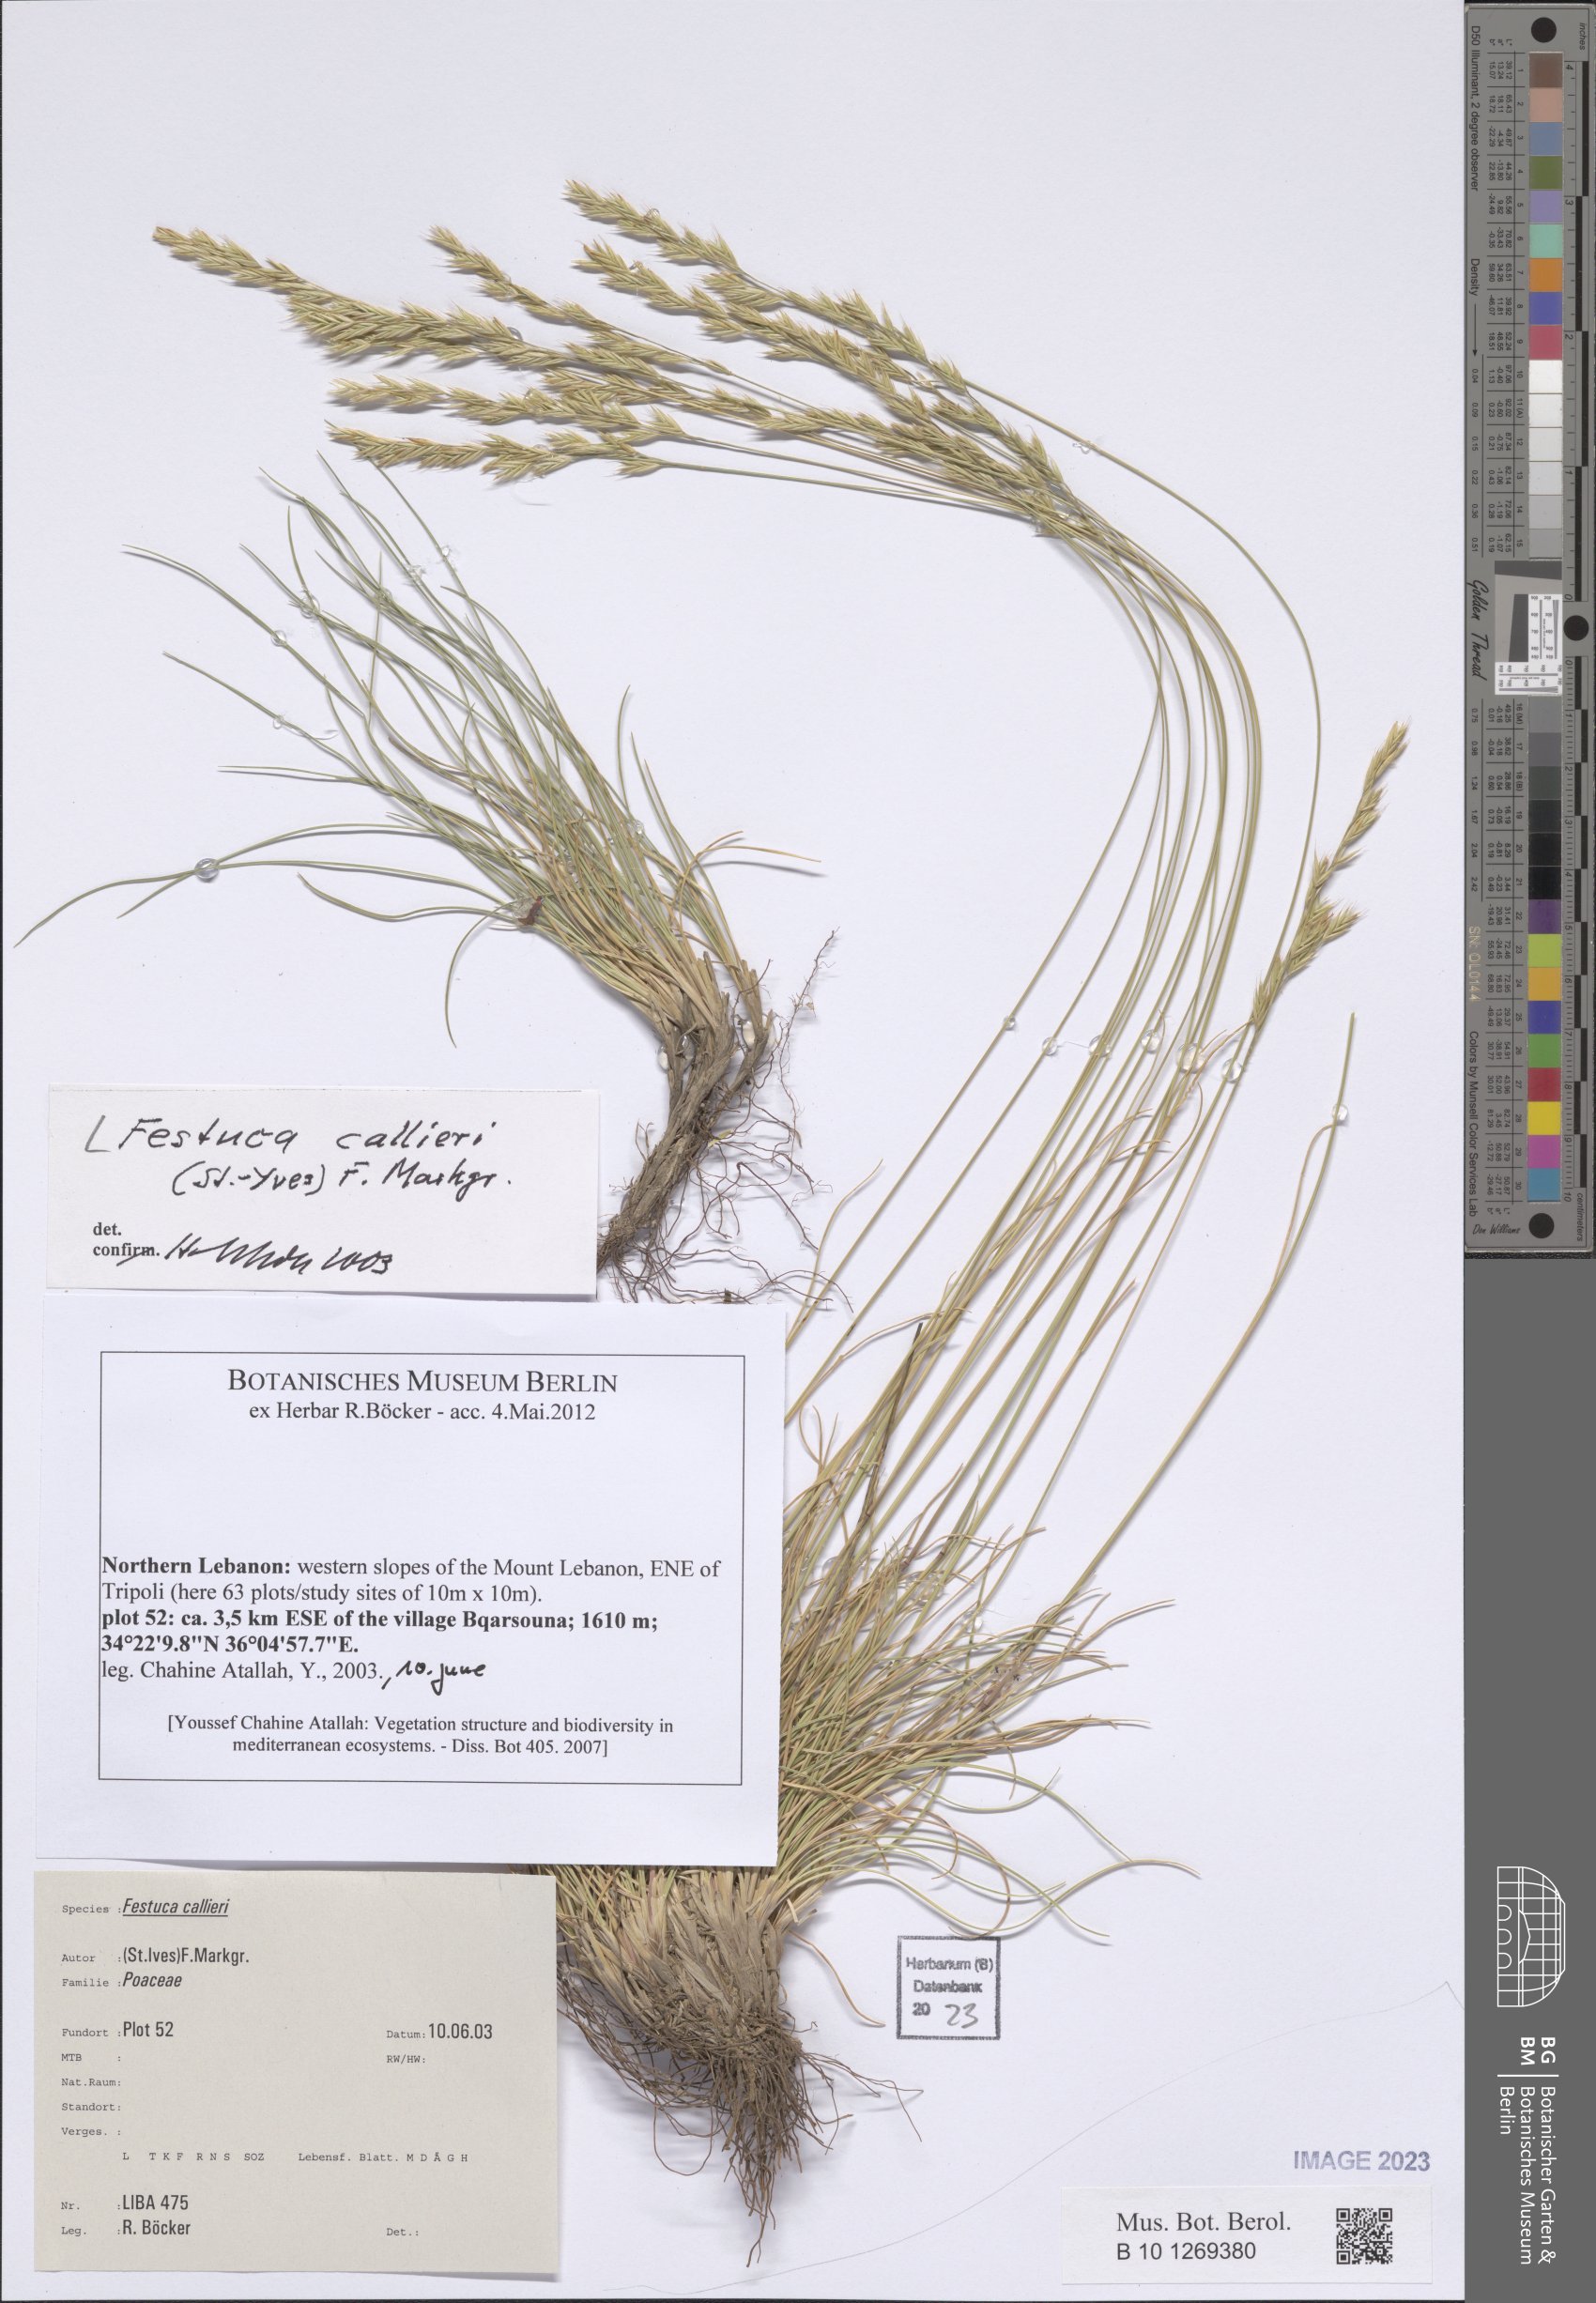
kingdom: Plantae
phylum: Tracheophyta
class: Liliopsida
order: Poales
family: Poaceae
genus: Festuca
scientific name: Festuca callieri
